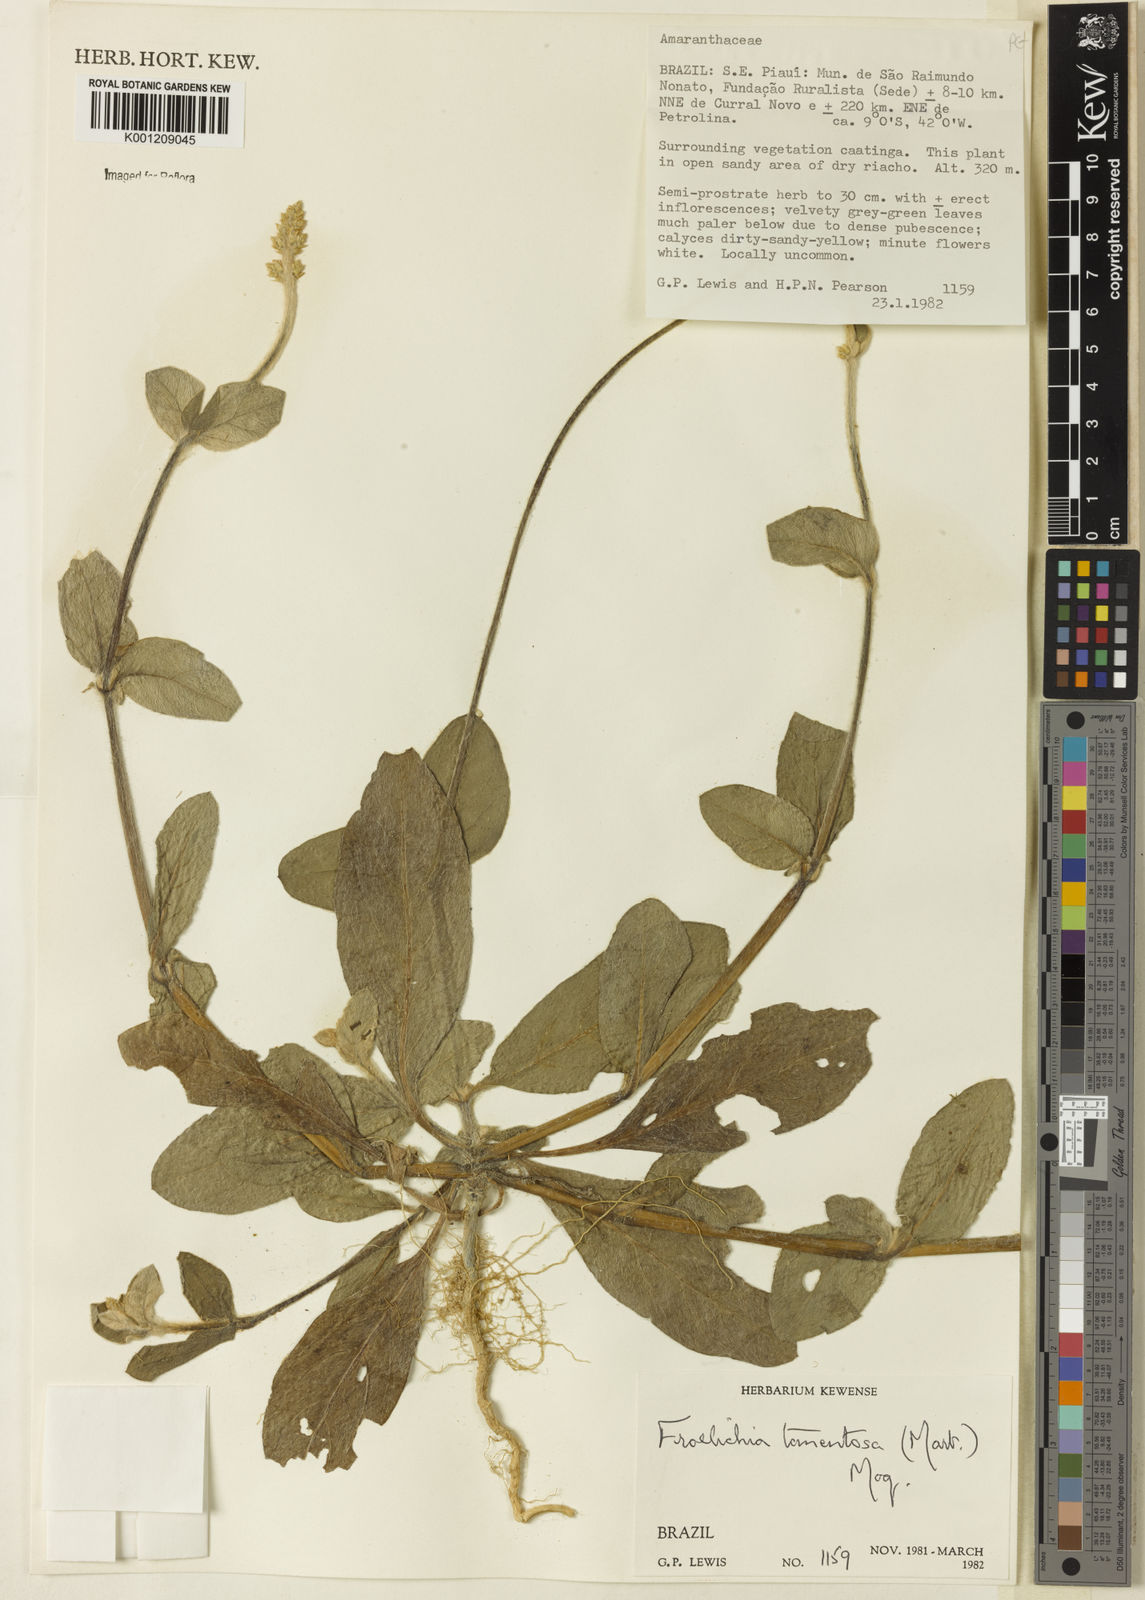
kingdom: Plantae
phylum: Tracheophyta
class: Magnoliopsida
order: Caryophyllales
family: Amaranthaceae
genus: Froelichia
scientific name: Froelichia tomentosa
